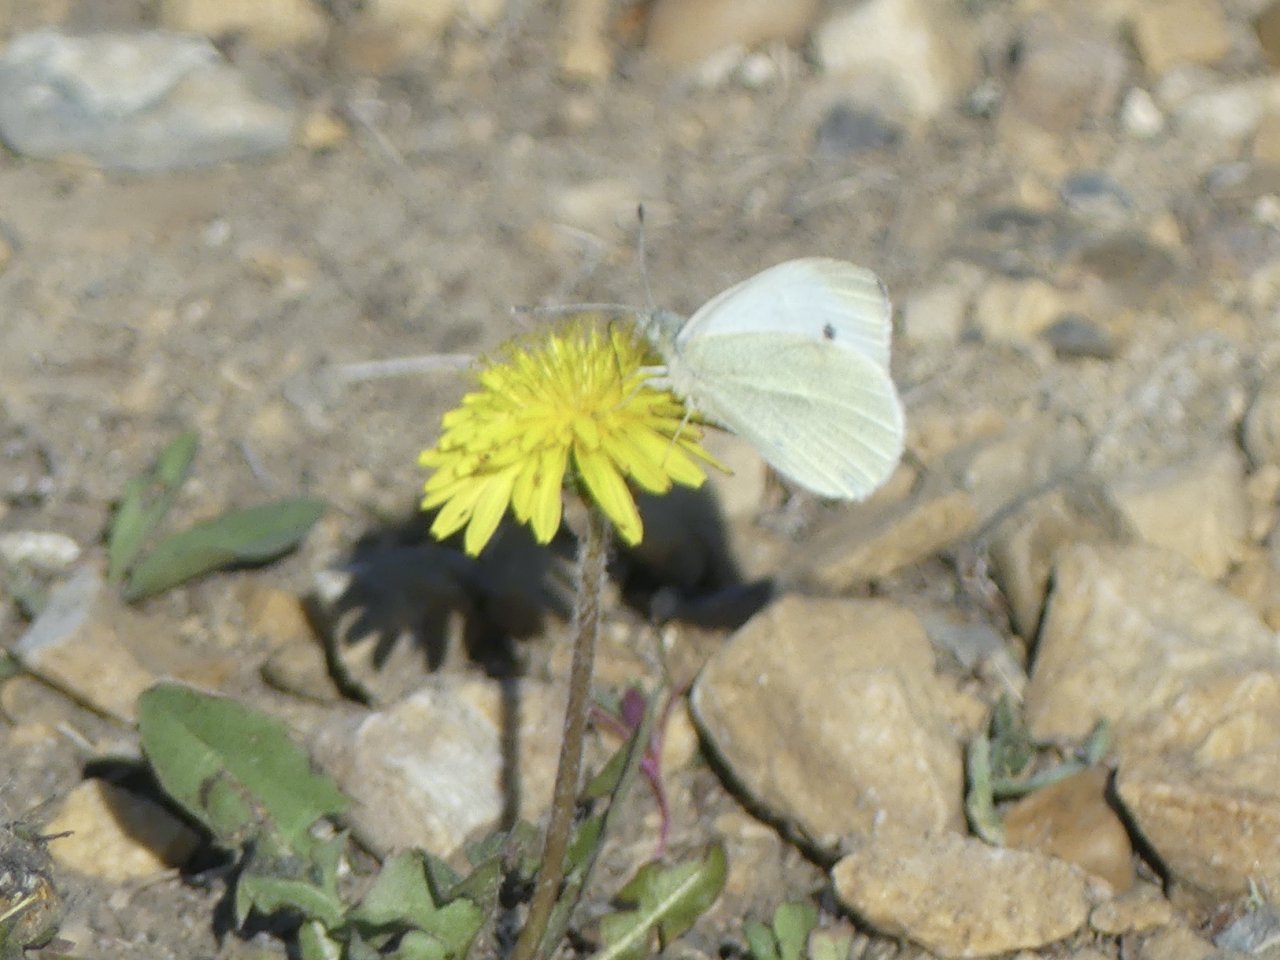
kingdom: Animalia
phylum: Arthropoda
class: Insecta
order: Lepidoptera
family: Pieridae
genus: Pieris
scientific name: Pieris rapae
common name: Cabbage White
